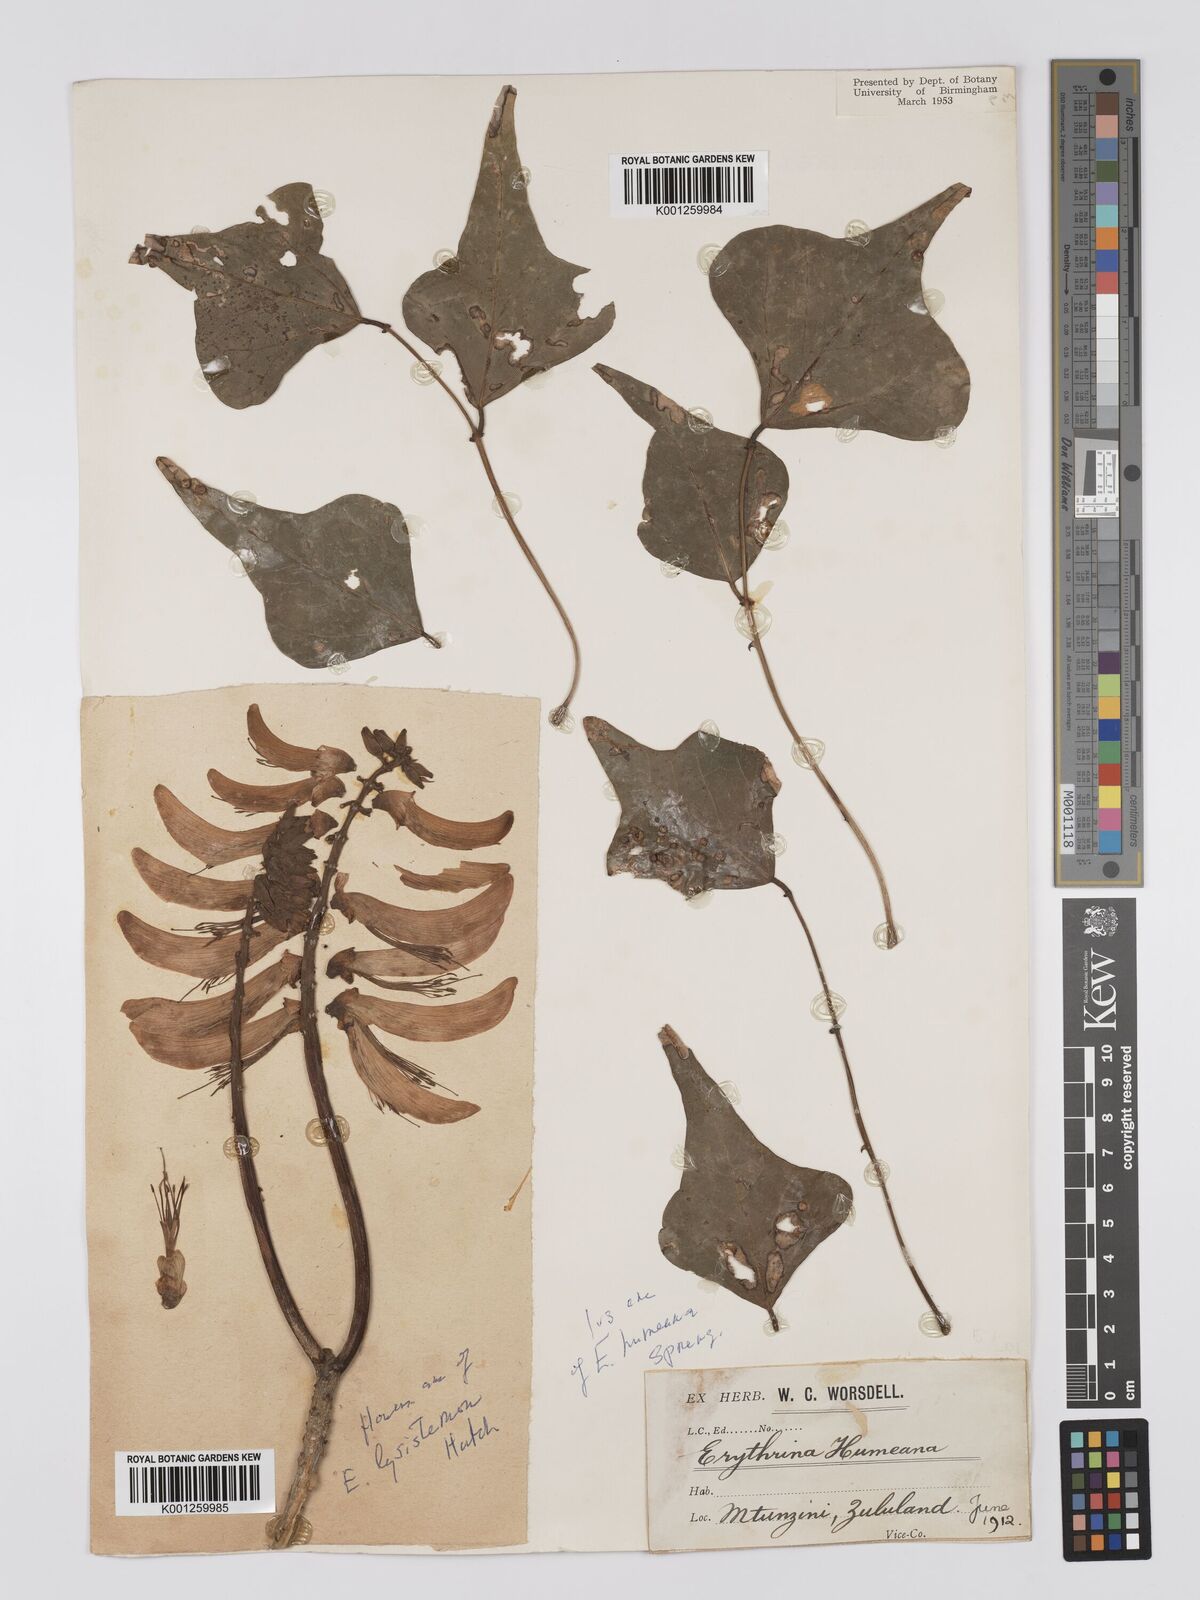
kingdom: Plantae
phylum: Tracheophyta
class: Magnoliopsida
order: Fabales
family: Fabaceae
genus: Erythrina
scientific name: Erythrina lysistemon
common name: Common coral tree
